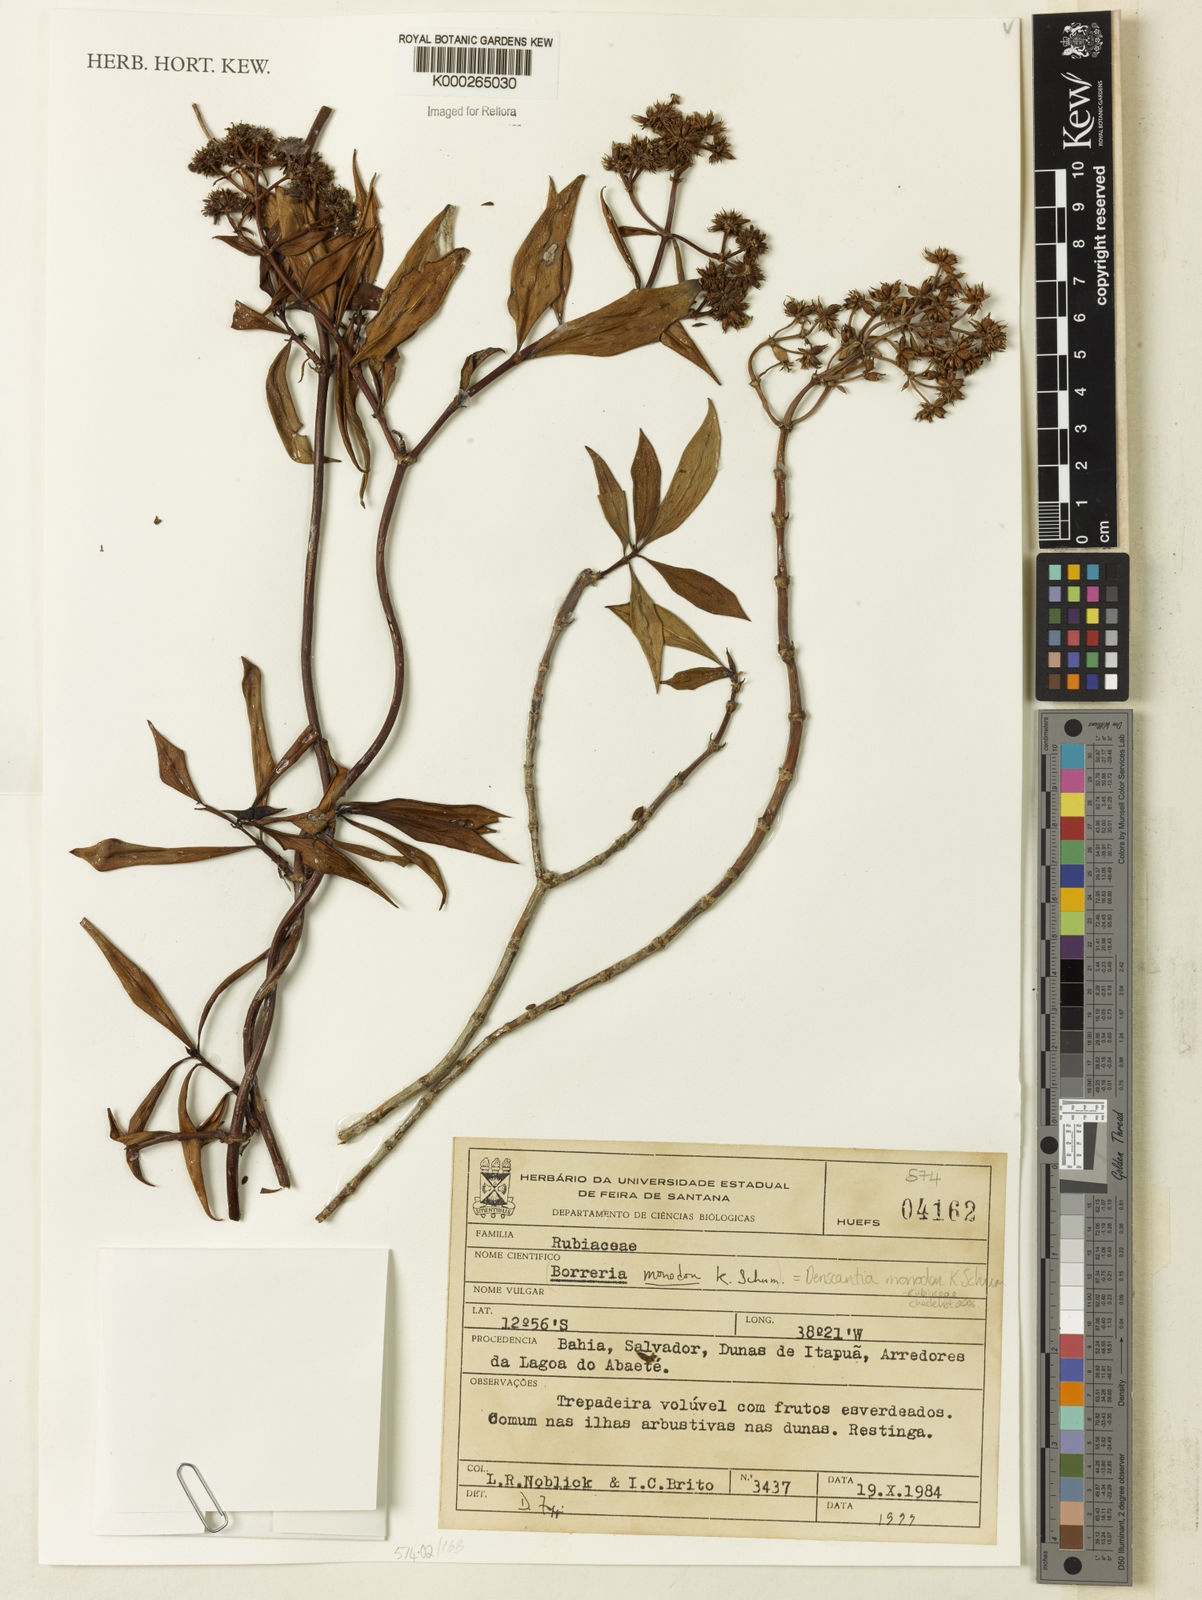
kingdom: Plantae
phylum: Tracheophyta
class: Magnoliopsida
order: Gentianales
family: Rubiaceae
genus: Denscantia
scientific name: Denscantia monodon
